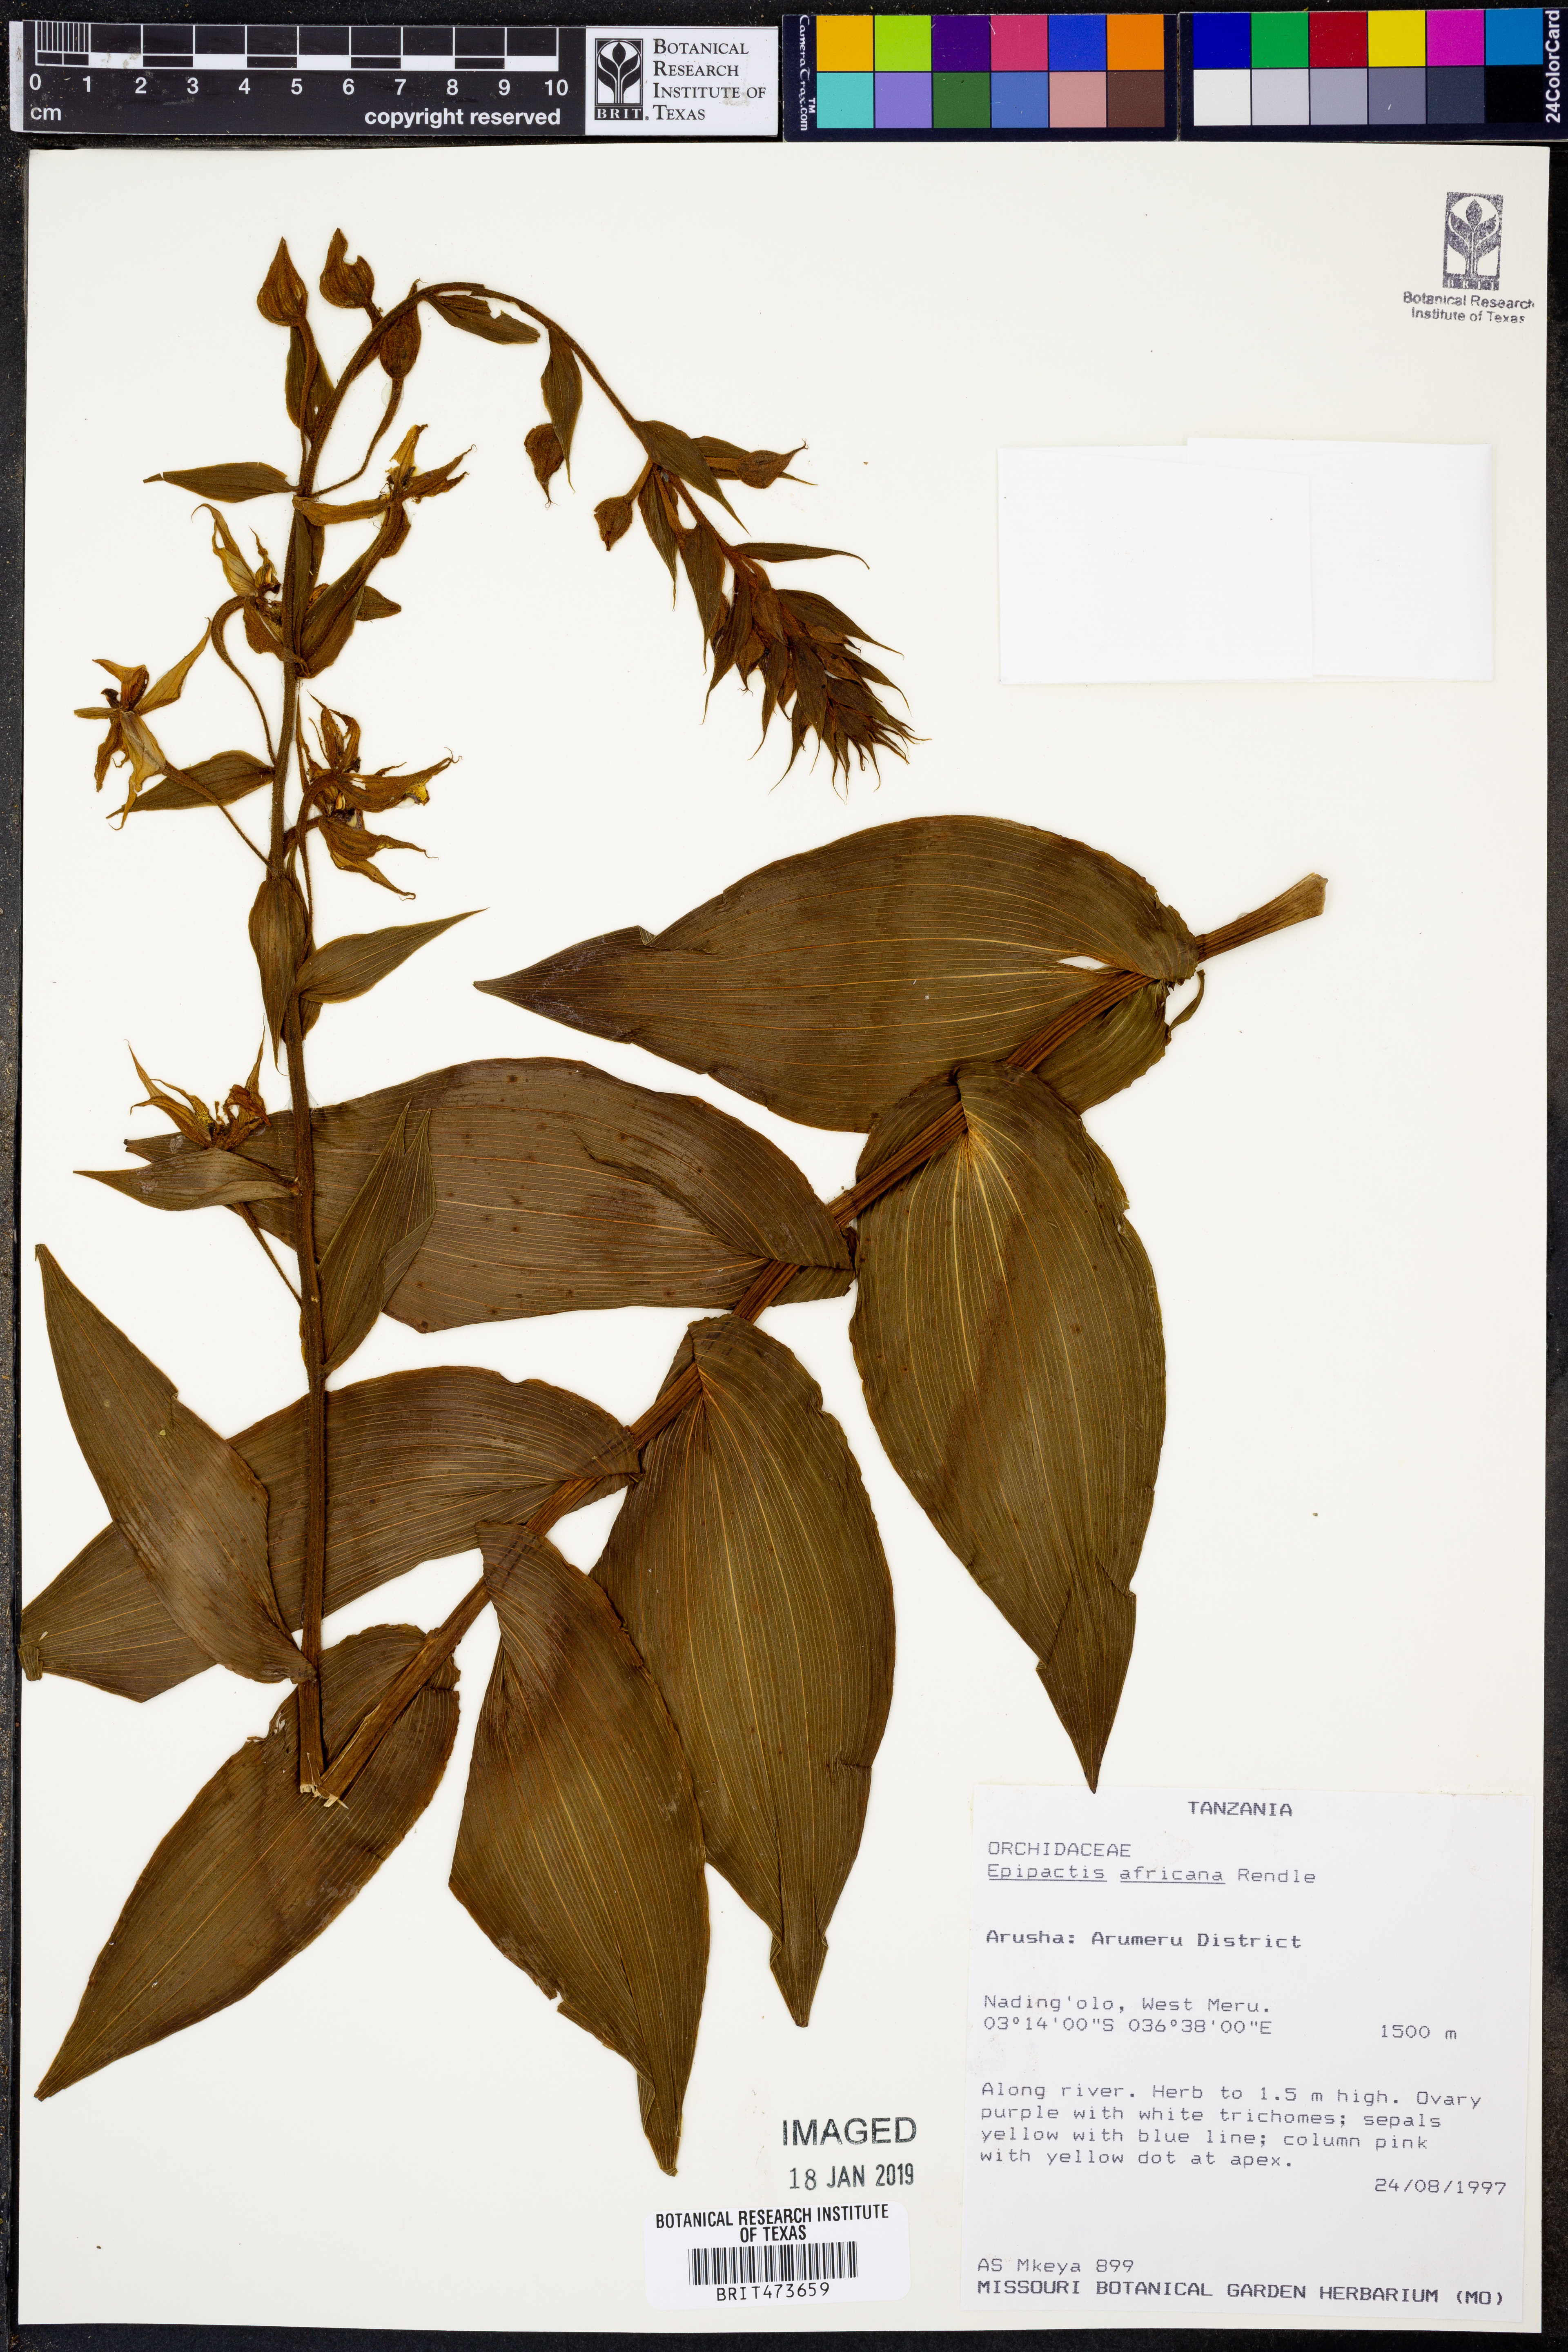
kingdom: Plantae
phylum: Tracheophyta
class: Liliopsida
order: Asparagales
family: Orchidaceae
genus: Epipactis
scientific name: Epipactis africana
